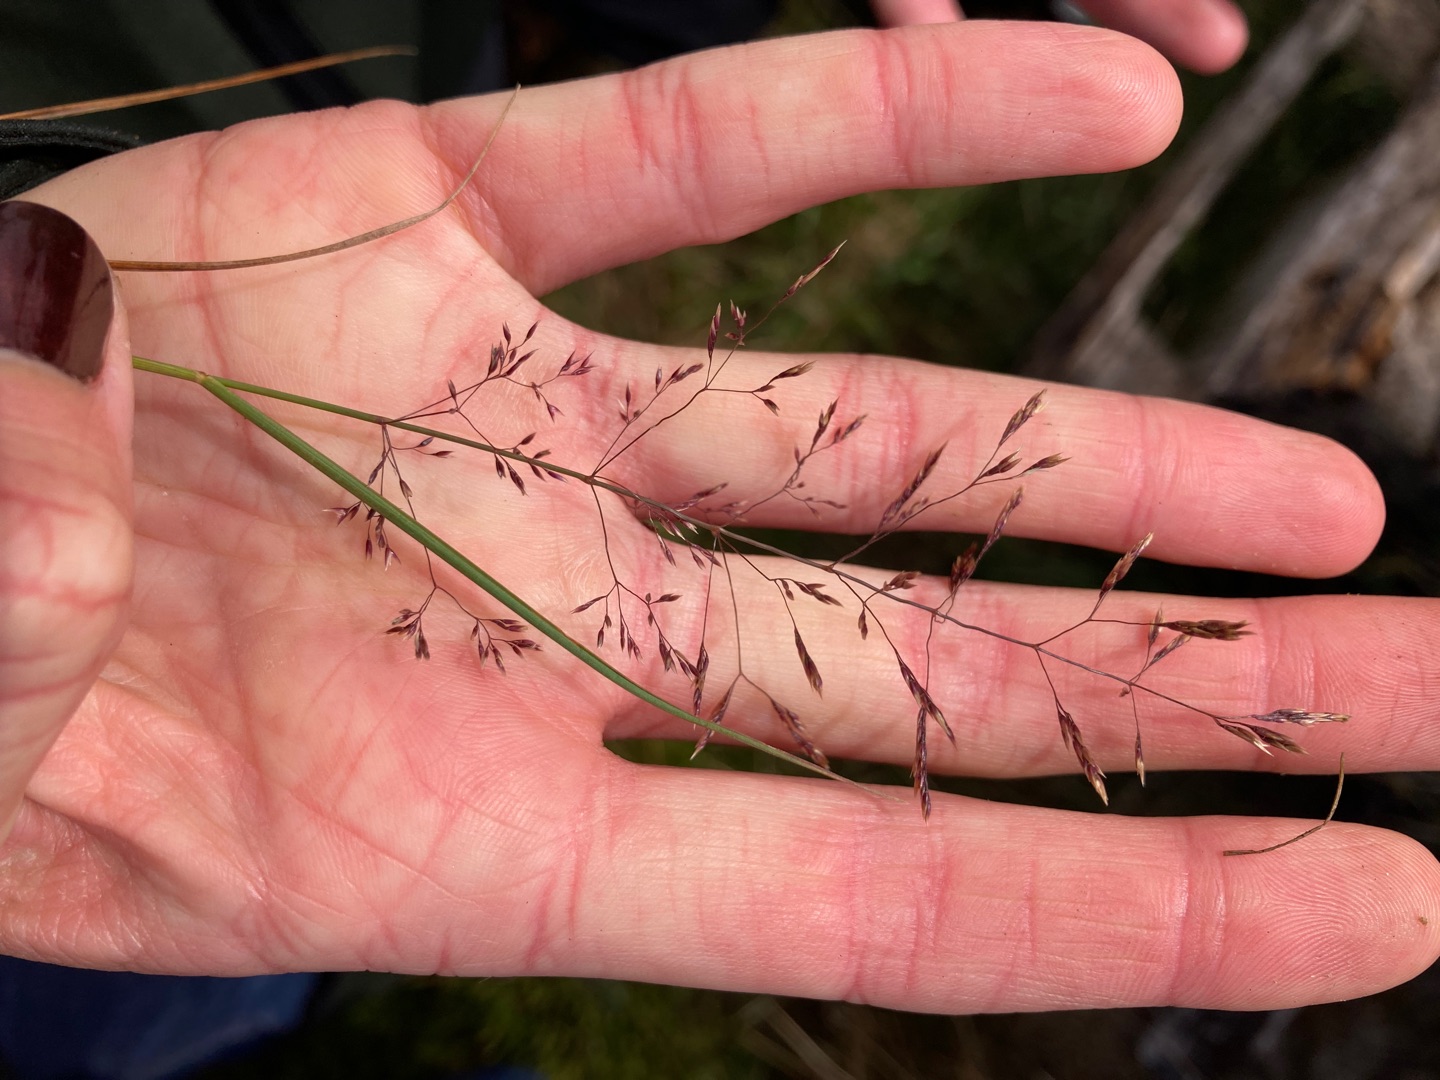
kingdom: Plantae
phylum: Tracheophyta
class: Liliopsida
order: Poales
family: Poaceae
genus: Agrostis
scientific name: Agrostis capillaris
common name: Almindelig hvene
